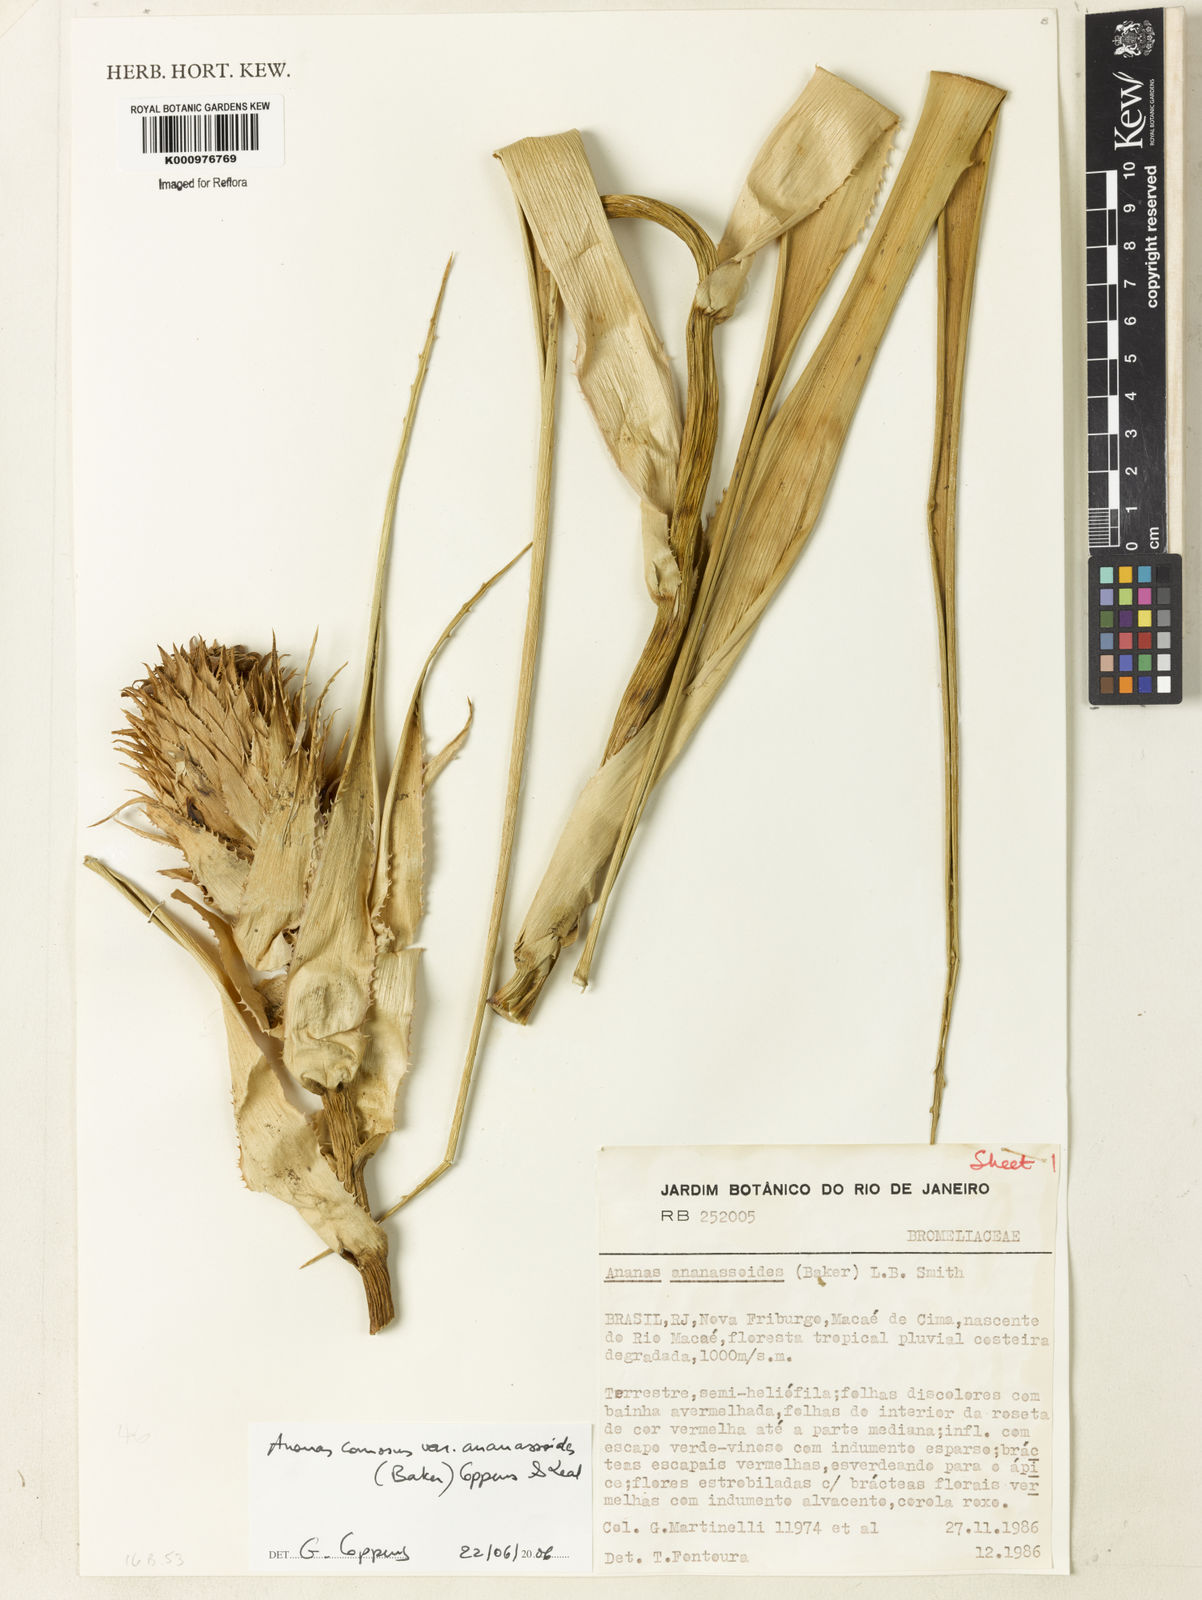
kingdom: Plantae
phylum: Tracheophyta
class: Liliopsida
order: Poales
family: Bromeliaceae
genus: Ananas
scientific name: Ananas comosus
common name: Pineapple
